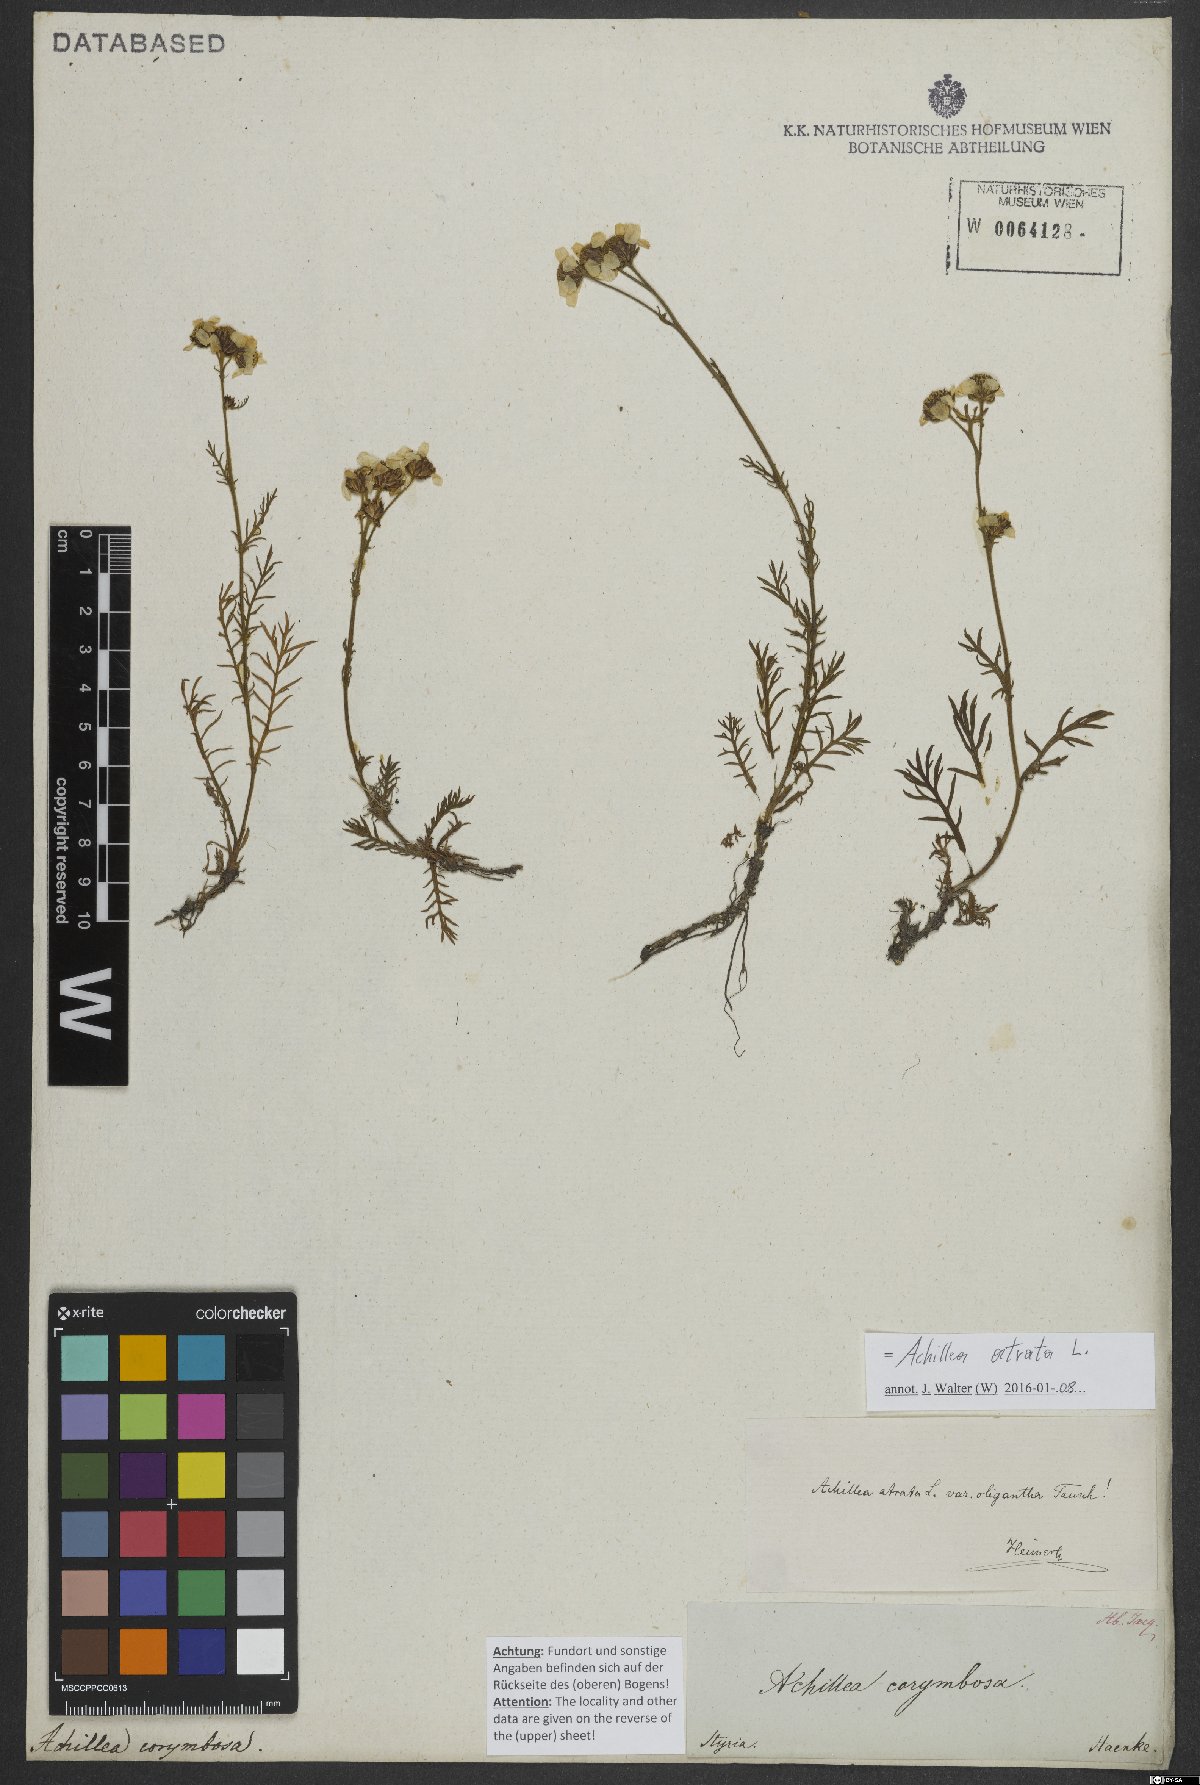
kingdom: Plantae
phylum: Tracheophyta
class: Magnoliopsida
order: Asterales
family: Asteraceae
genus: Achillea
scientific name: Achillea atrata
